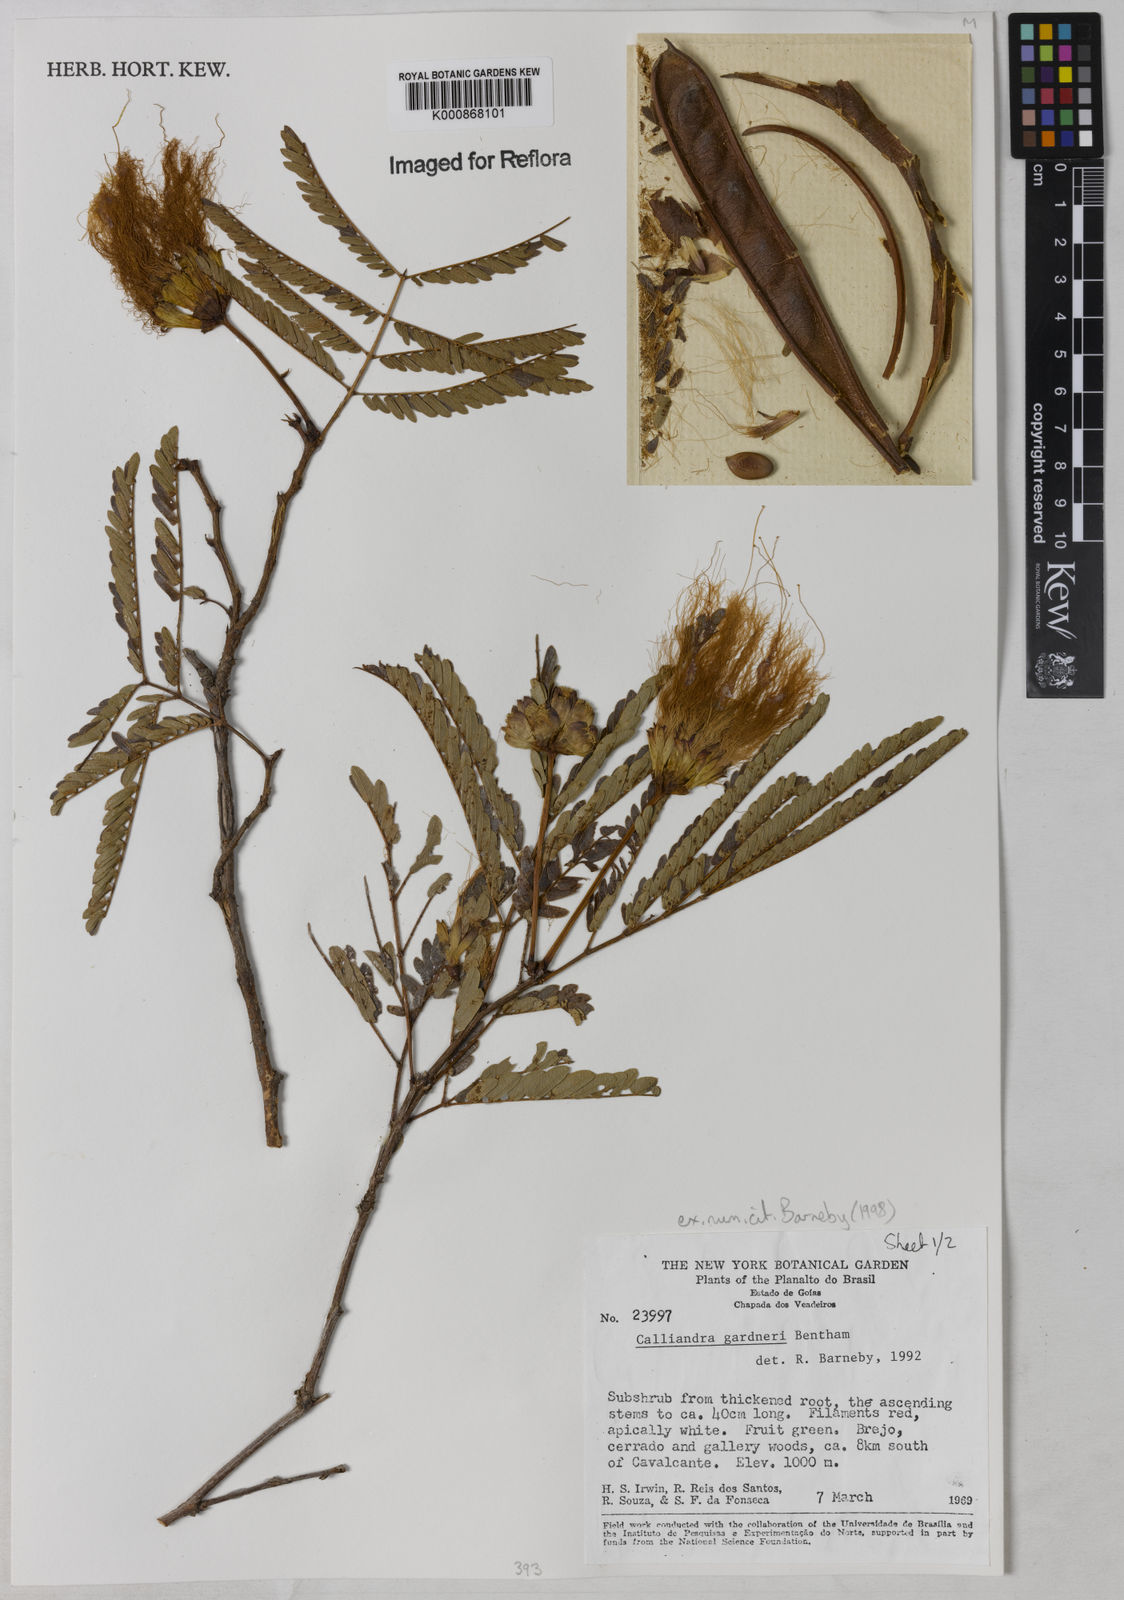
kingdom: Plantae
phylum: Tracheophyta
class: Magnoliopsida
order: Fabales
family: Fabaceae
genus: Calliandra
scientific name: Calliandra gardneri
